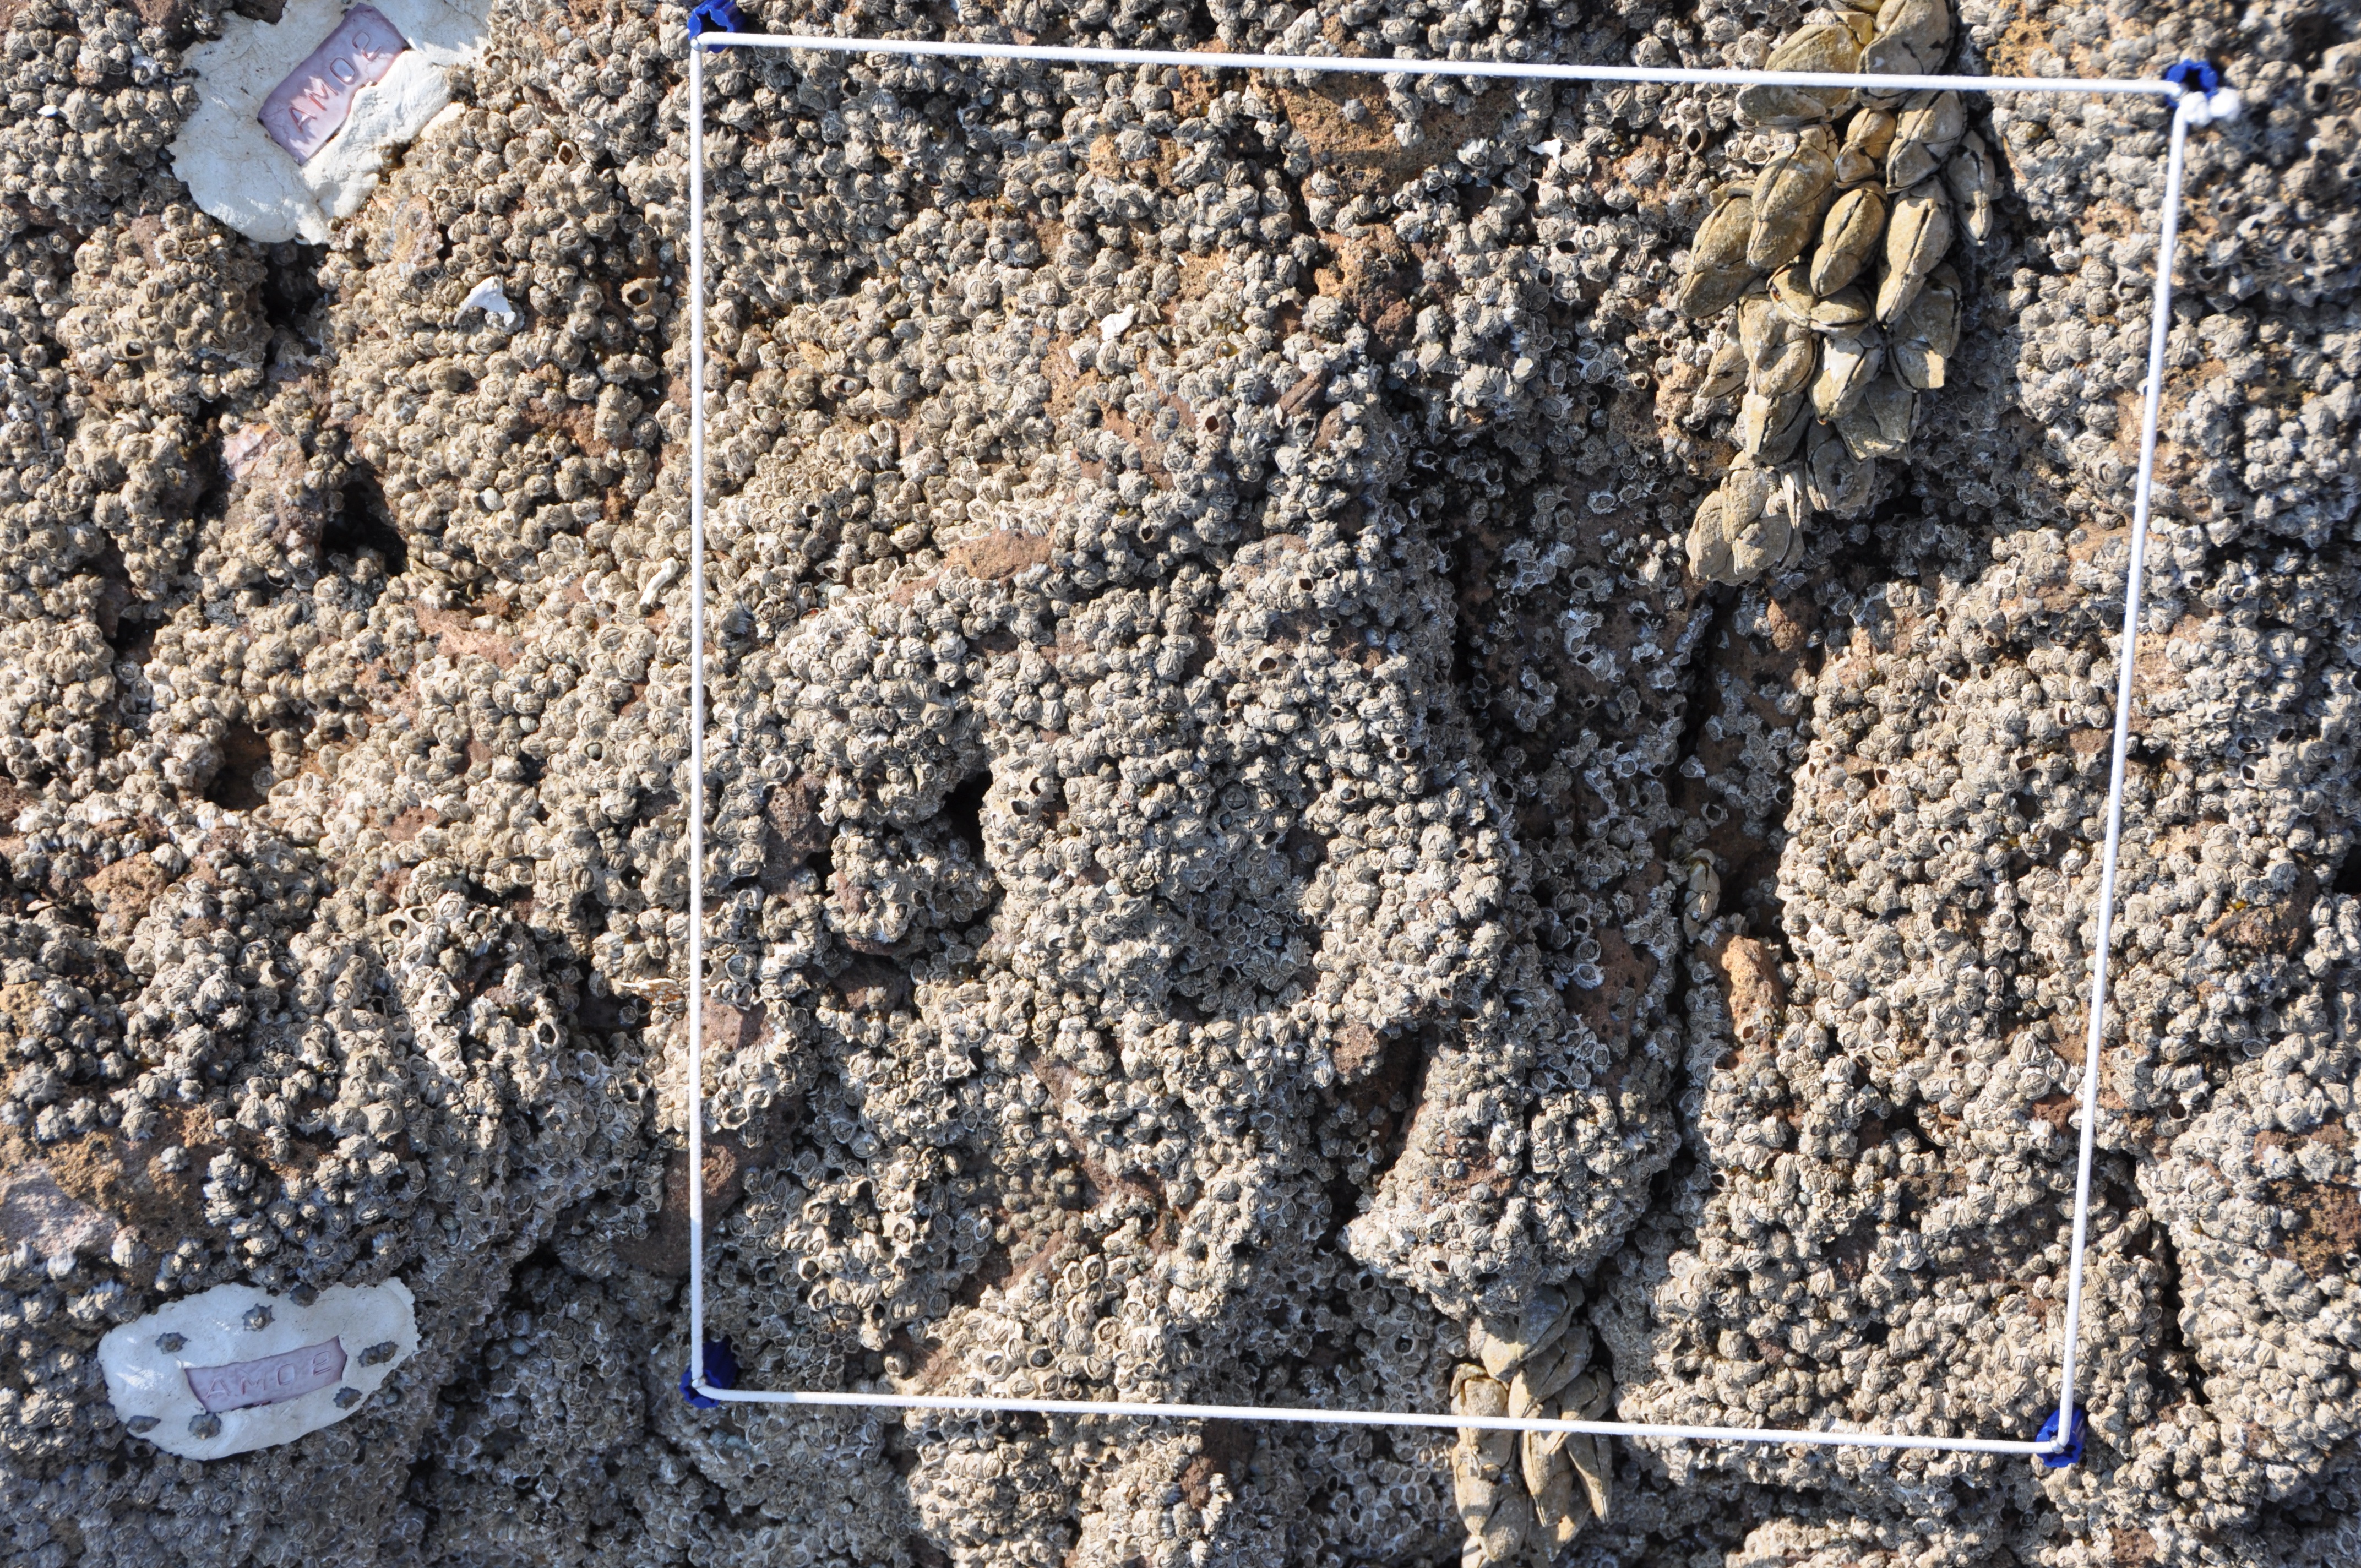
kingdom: Animalia
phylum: Arthropoda
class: Maxillopoda
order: Sessilia
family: Chthamalidae
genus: Chthamalus
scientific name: Chthamalus challengeri
